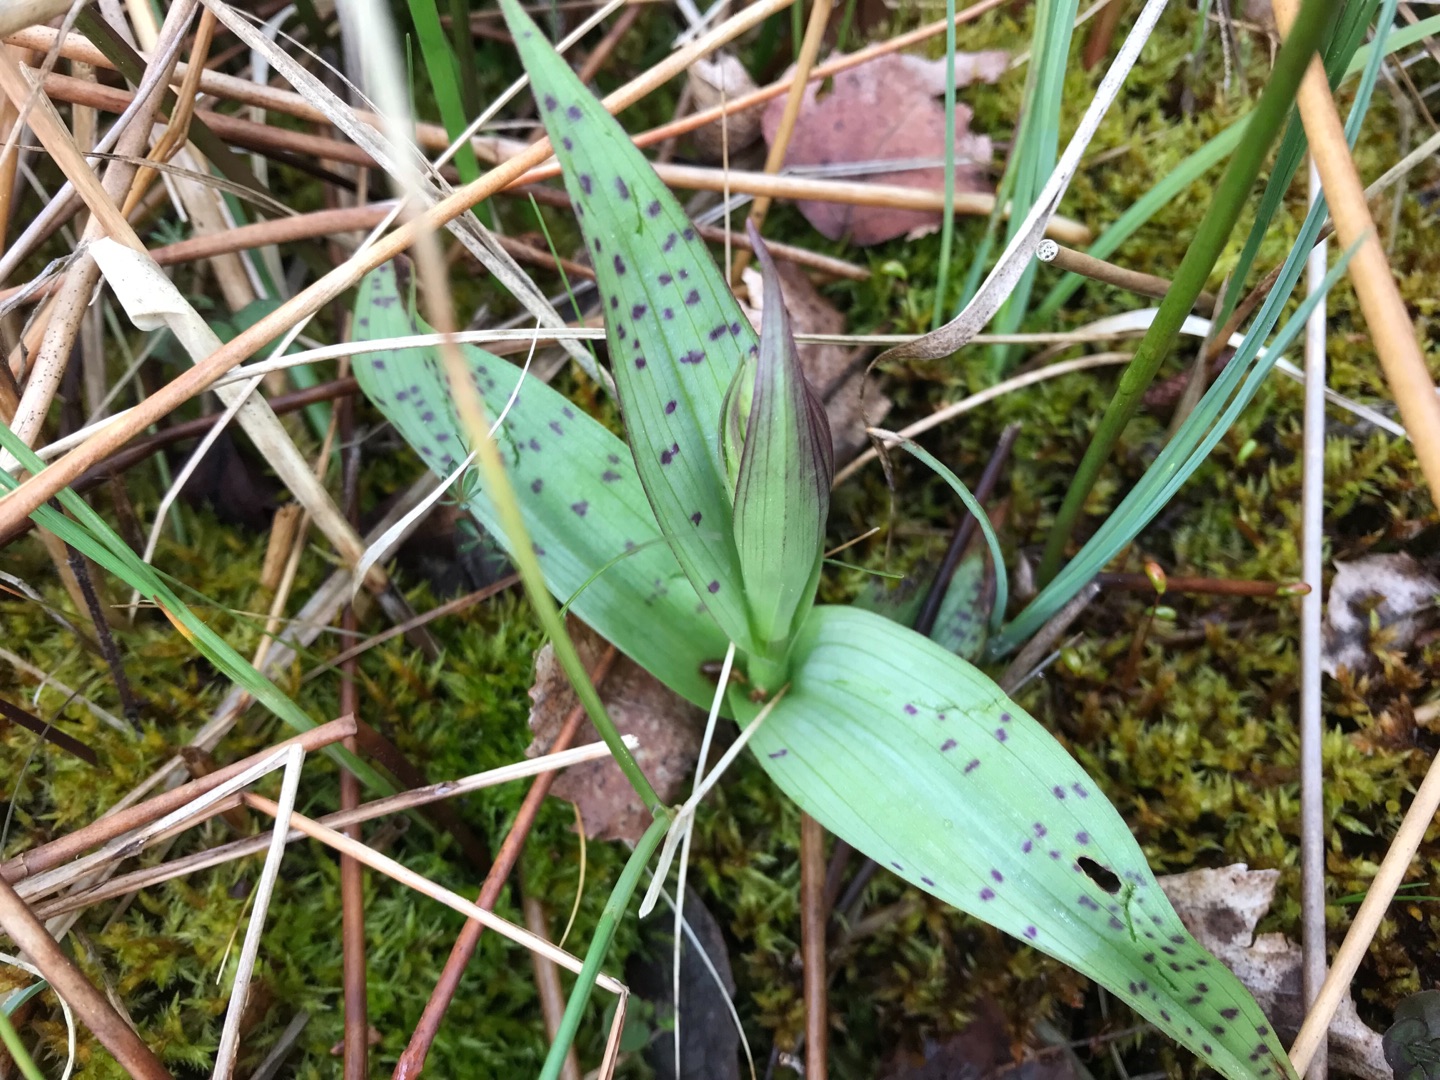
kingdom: Plantae
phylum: Tracheophyta
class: Liliopsida
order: Asparagales
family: Orchidaceae
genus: Dactylorhiza
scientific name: Dactylorhiza majalis
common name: Maj-gøgeurt
